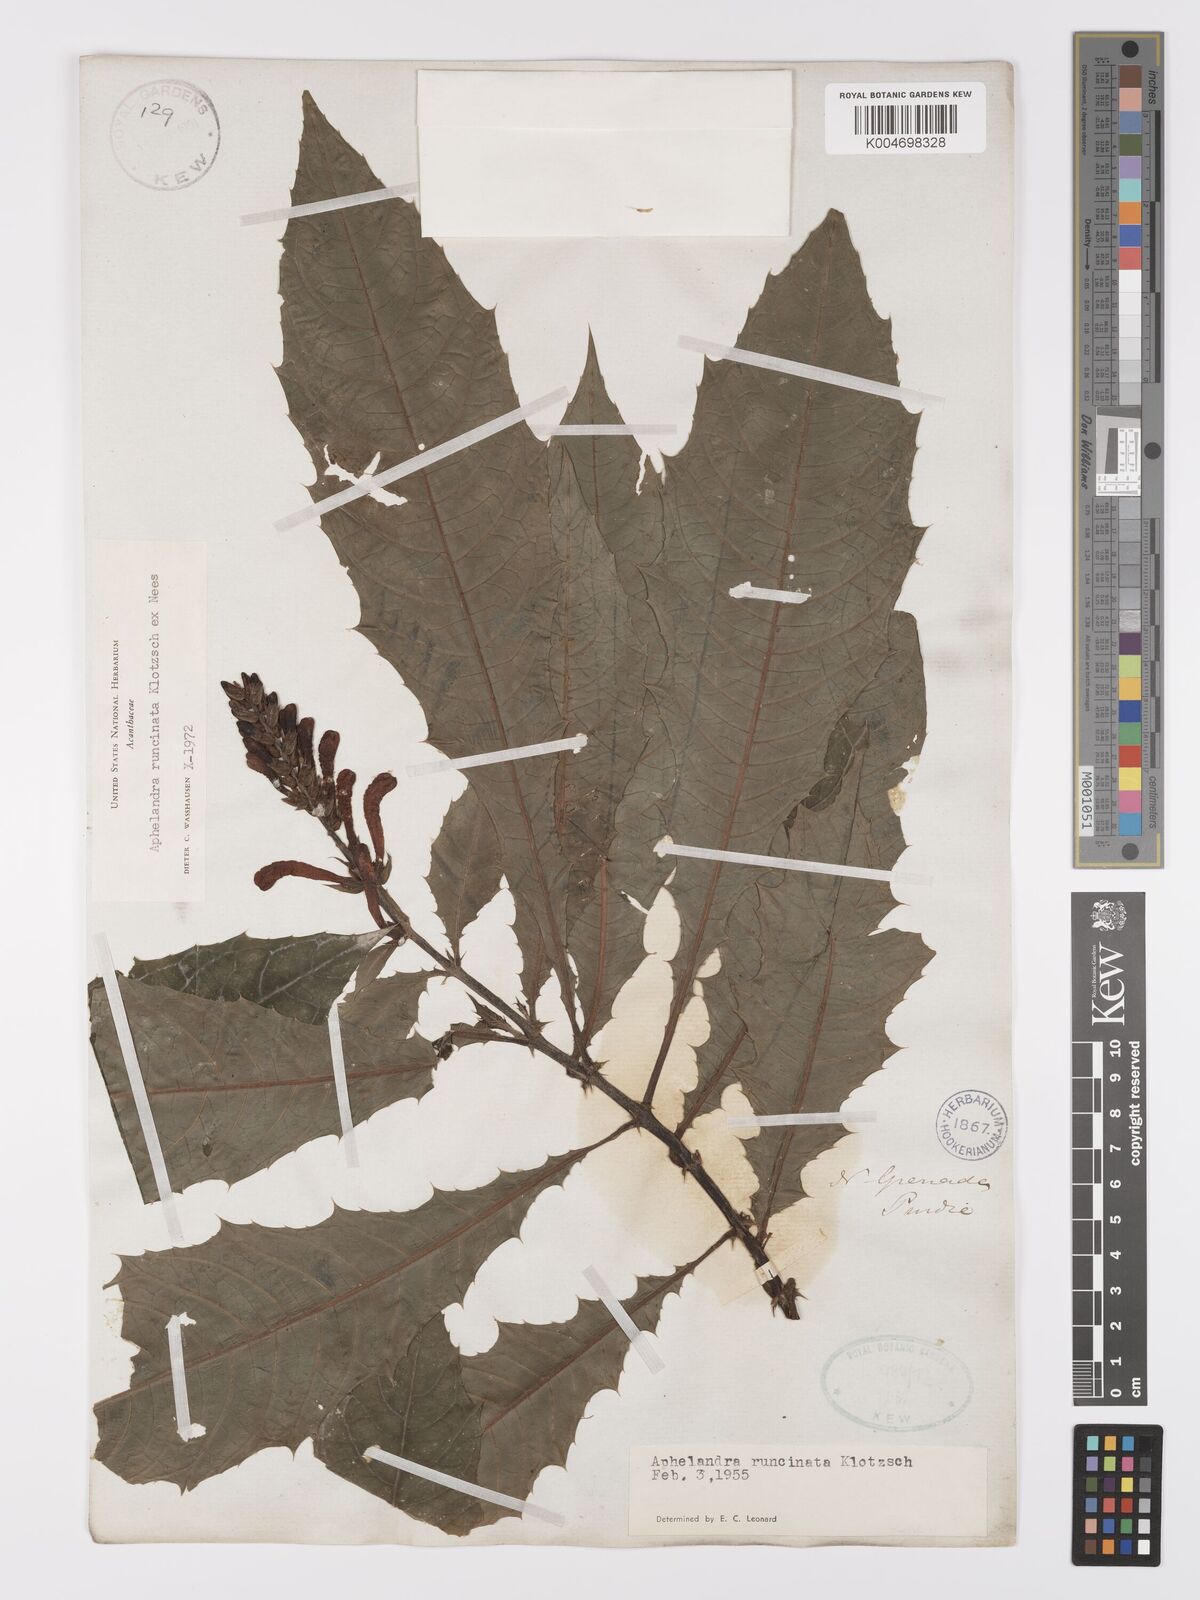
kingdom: Plantae
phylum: Tracheophyta
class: Magnoliopsida
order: Lamiales
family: Acanthaceae
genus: Aphelandra
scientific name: Aphelandra runcinata
